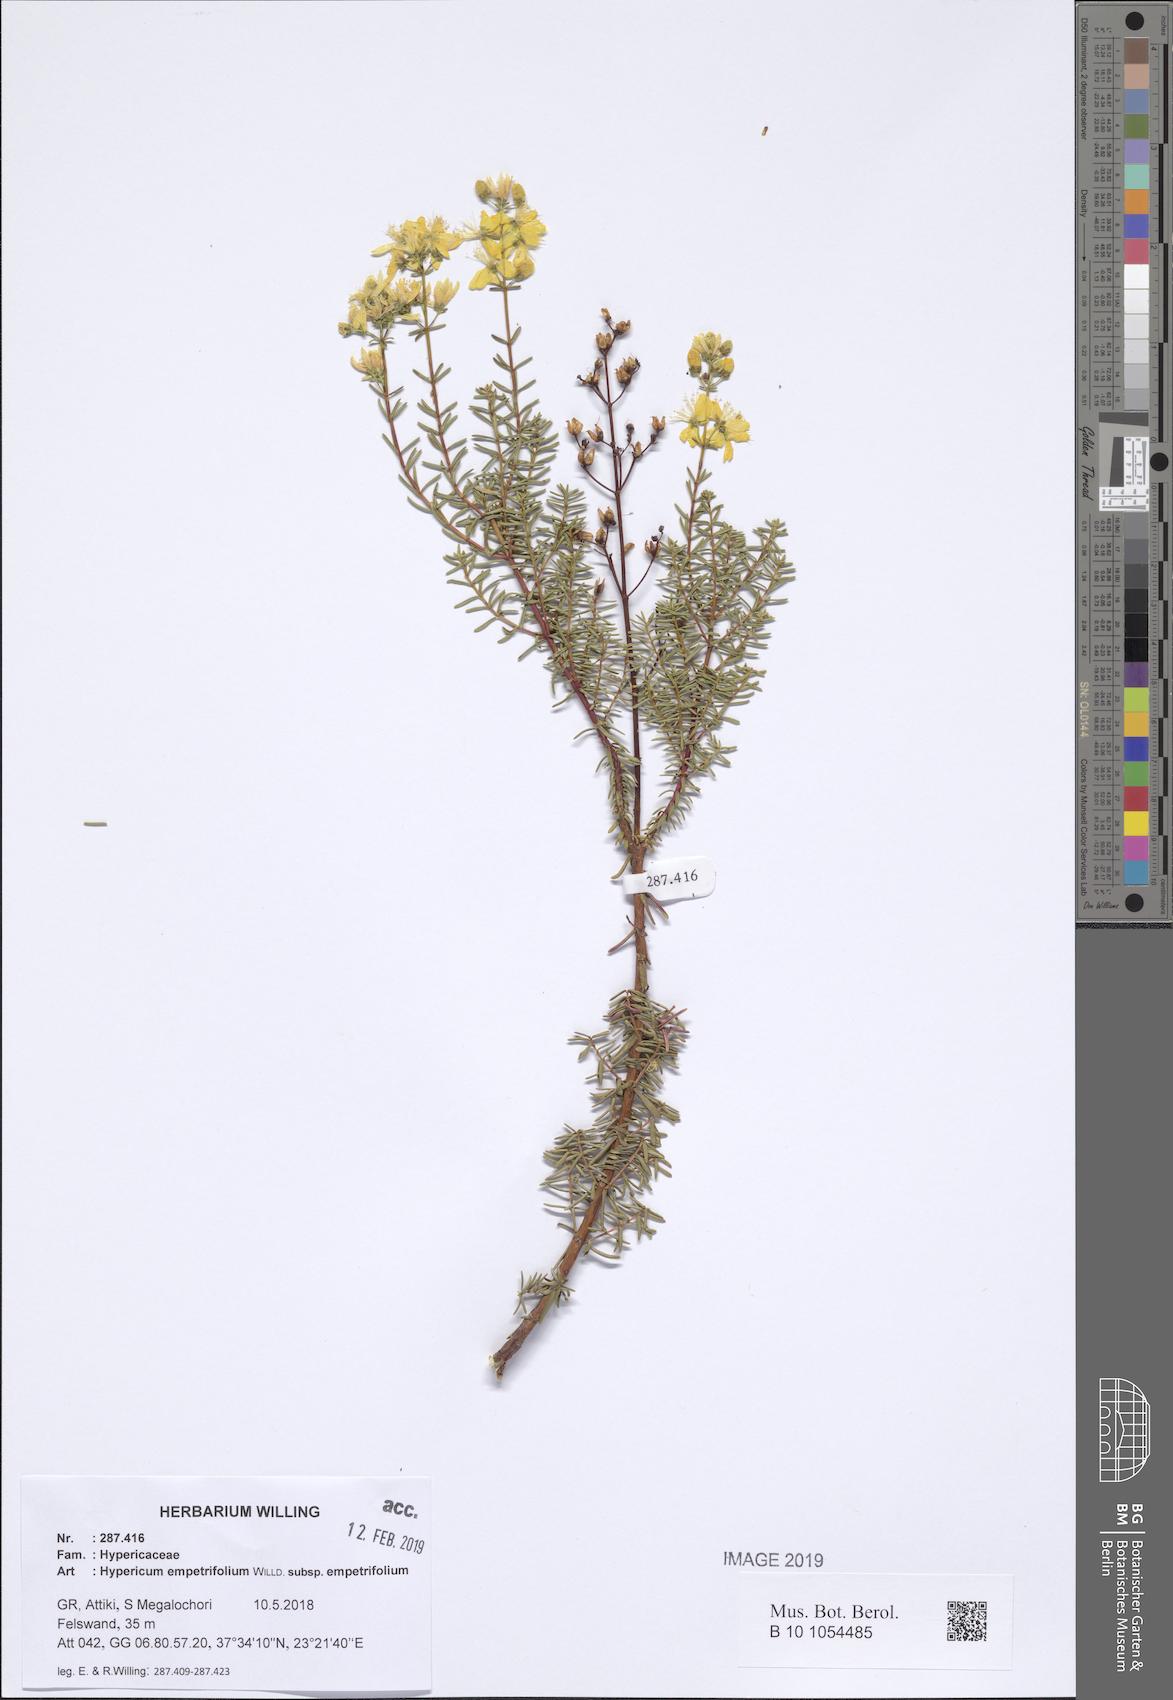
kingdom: Plantae
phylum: Tracheophyta
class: Magnoliopsida
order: Malpighiales
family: Hypericaceae
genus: Hypericum
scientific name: Hypericum empetrifolium
